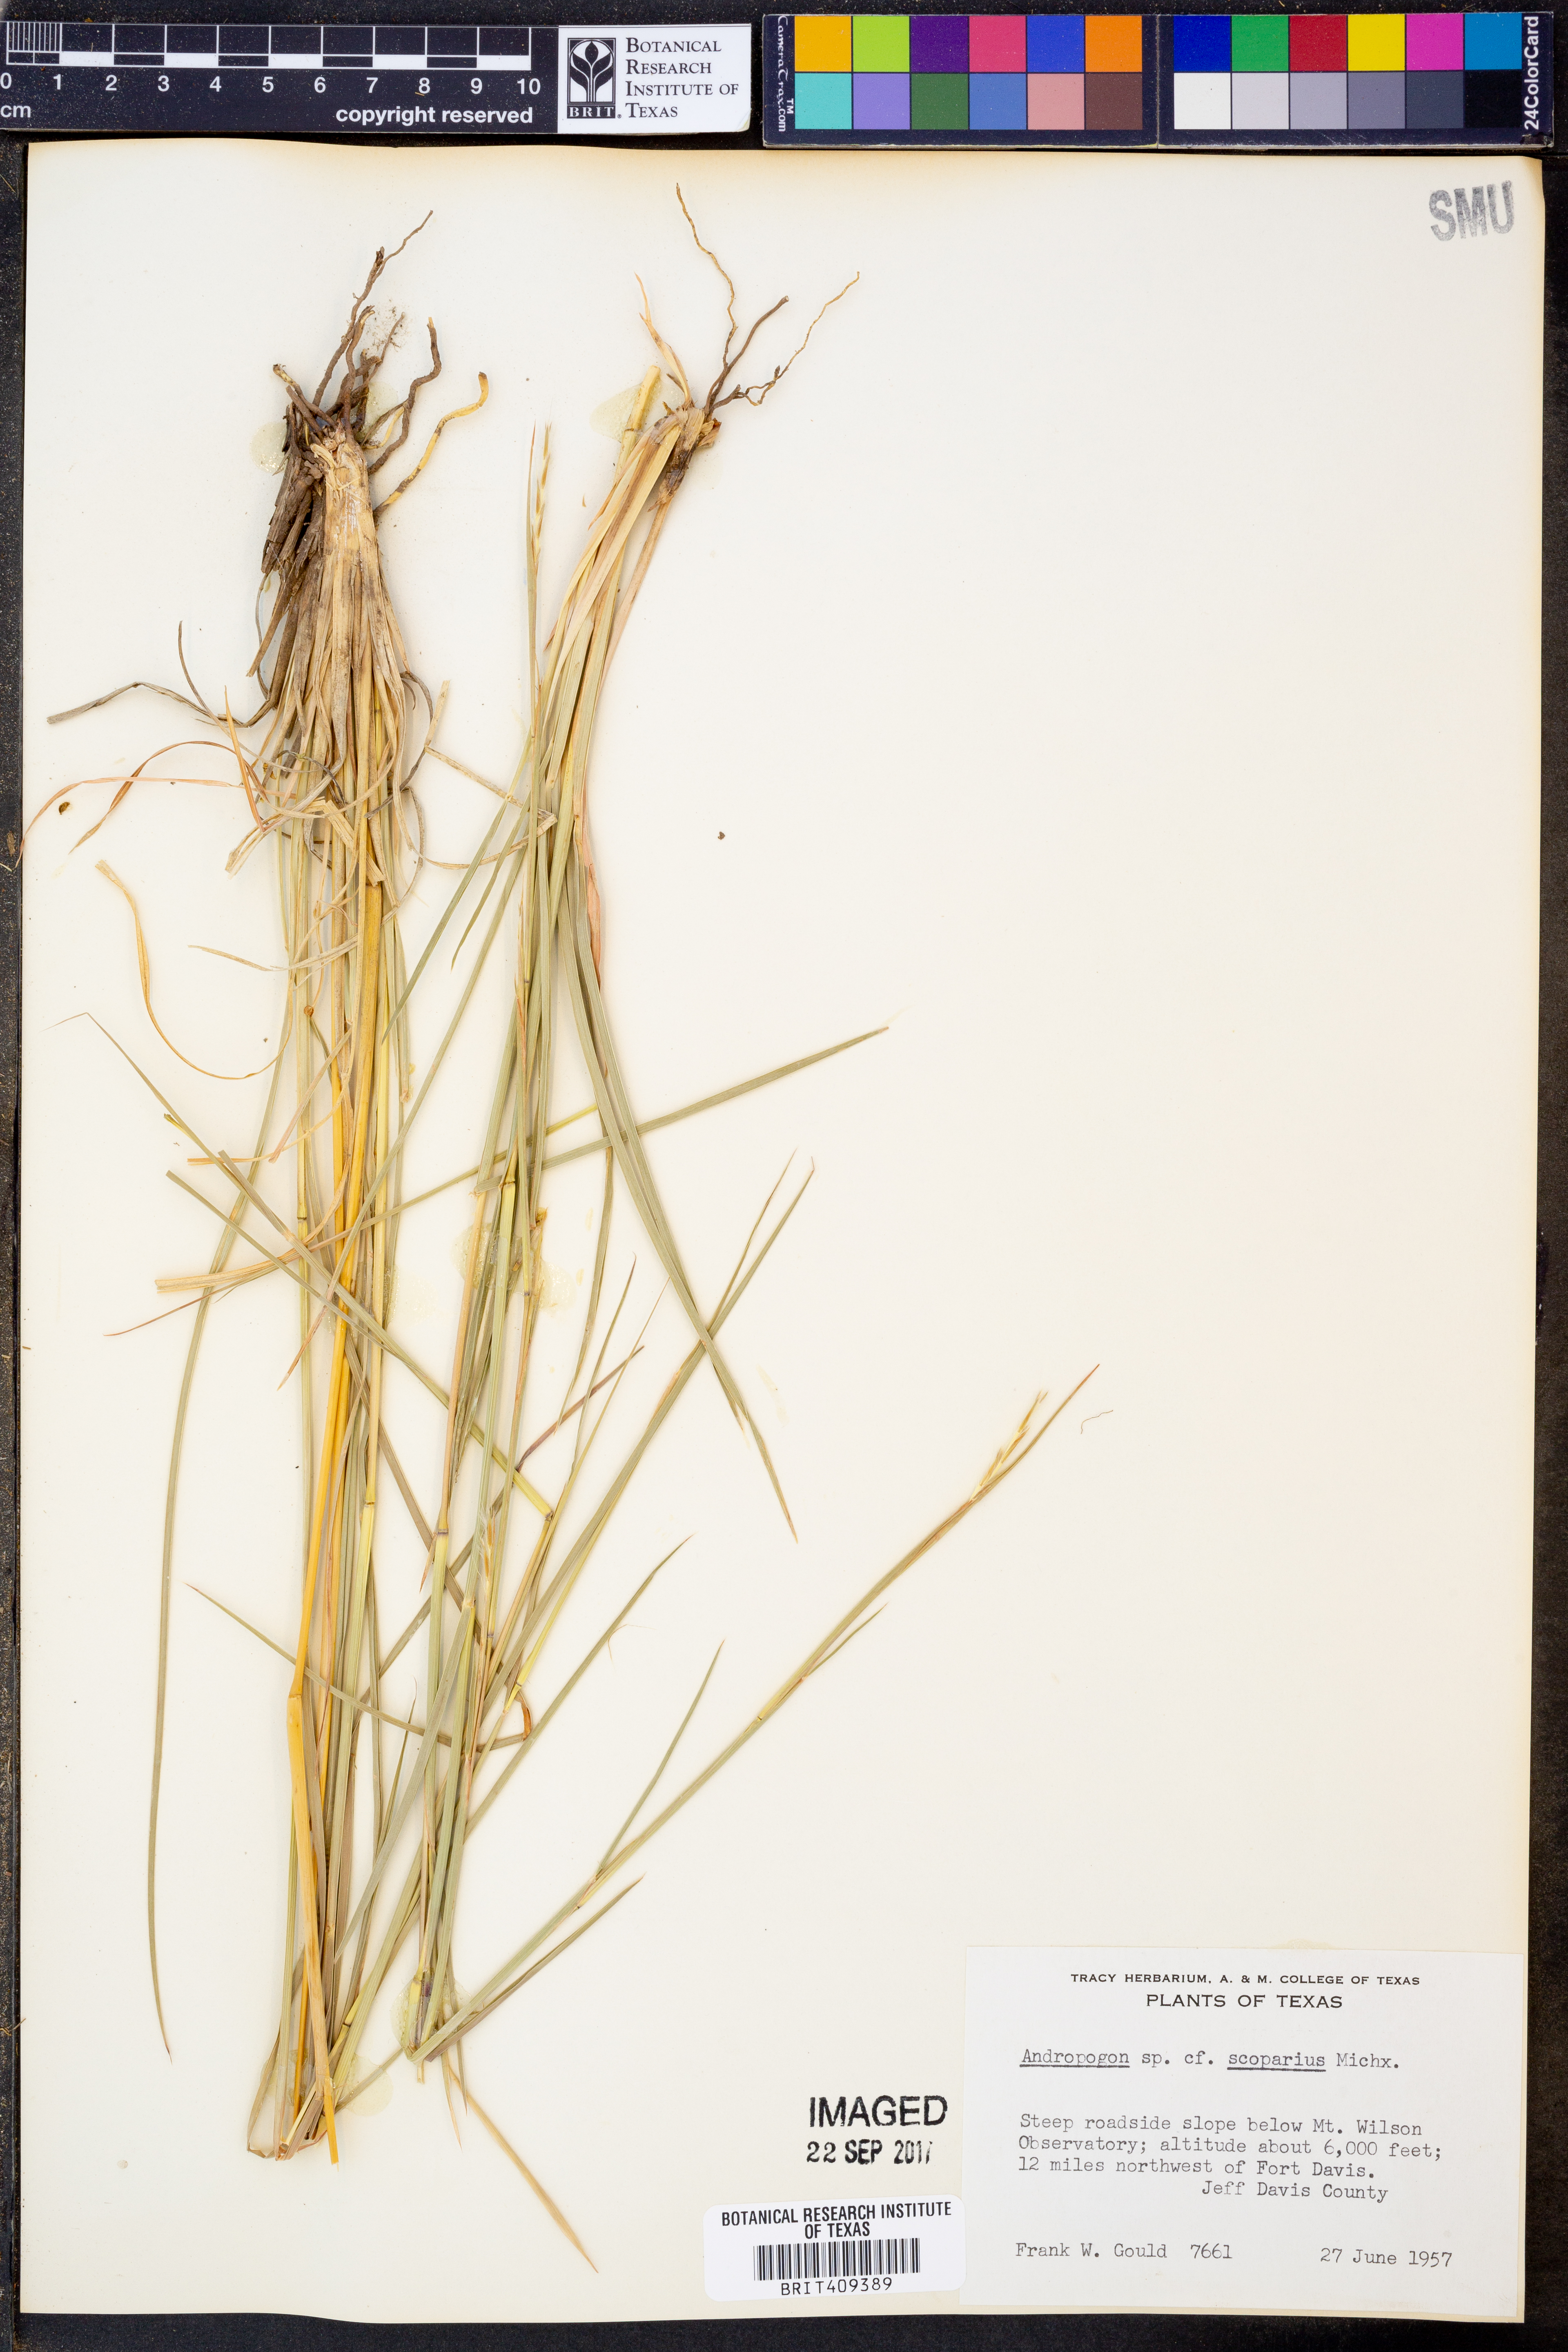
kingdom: Plantae
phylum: Tracheophyta
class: Liliopsida
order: Poales
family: Poaceae
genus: Schizachyrium
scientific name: Schizachyrium scoparium
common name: Little bluestem
